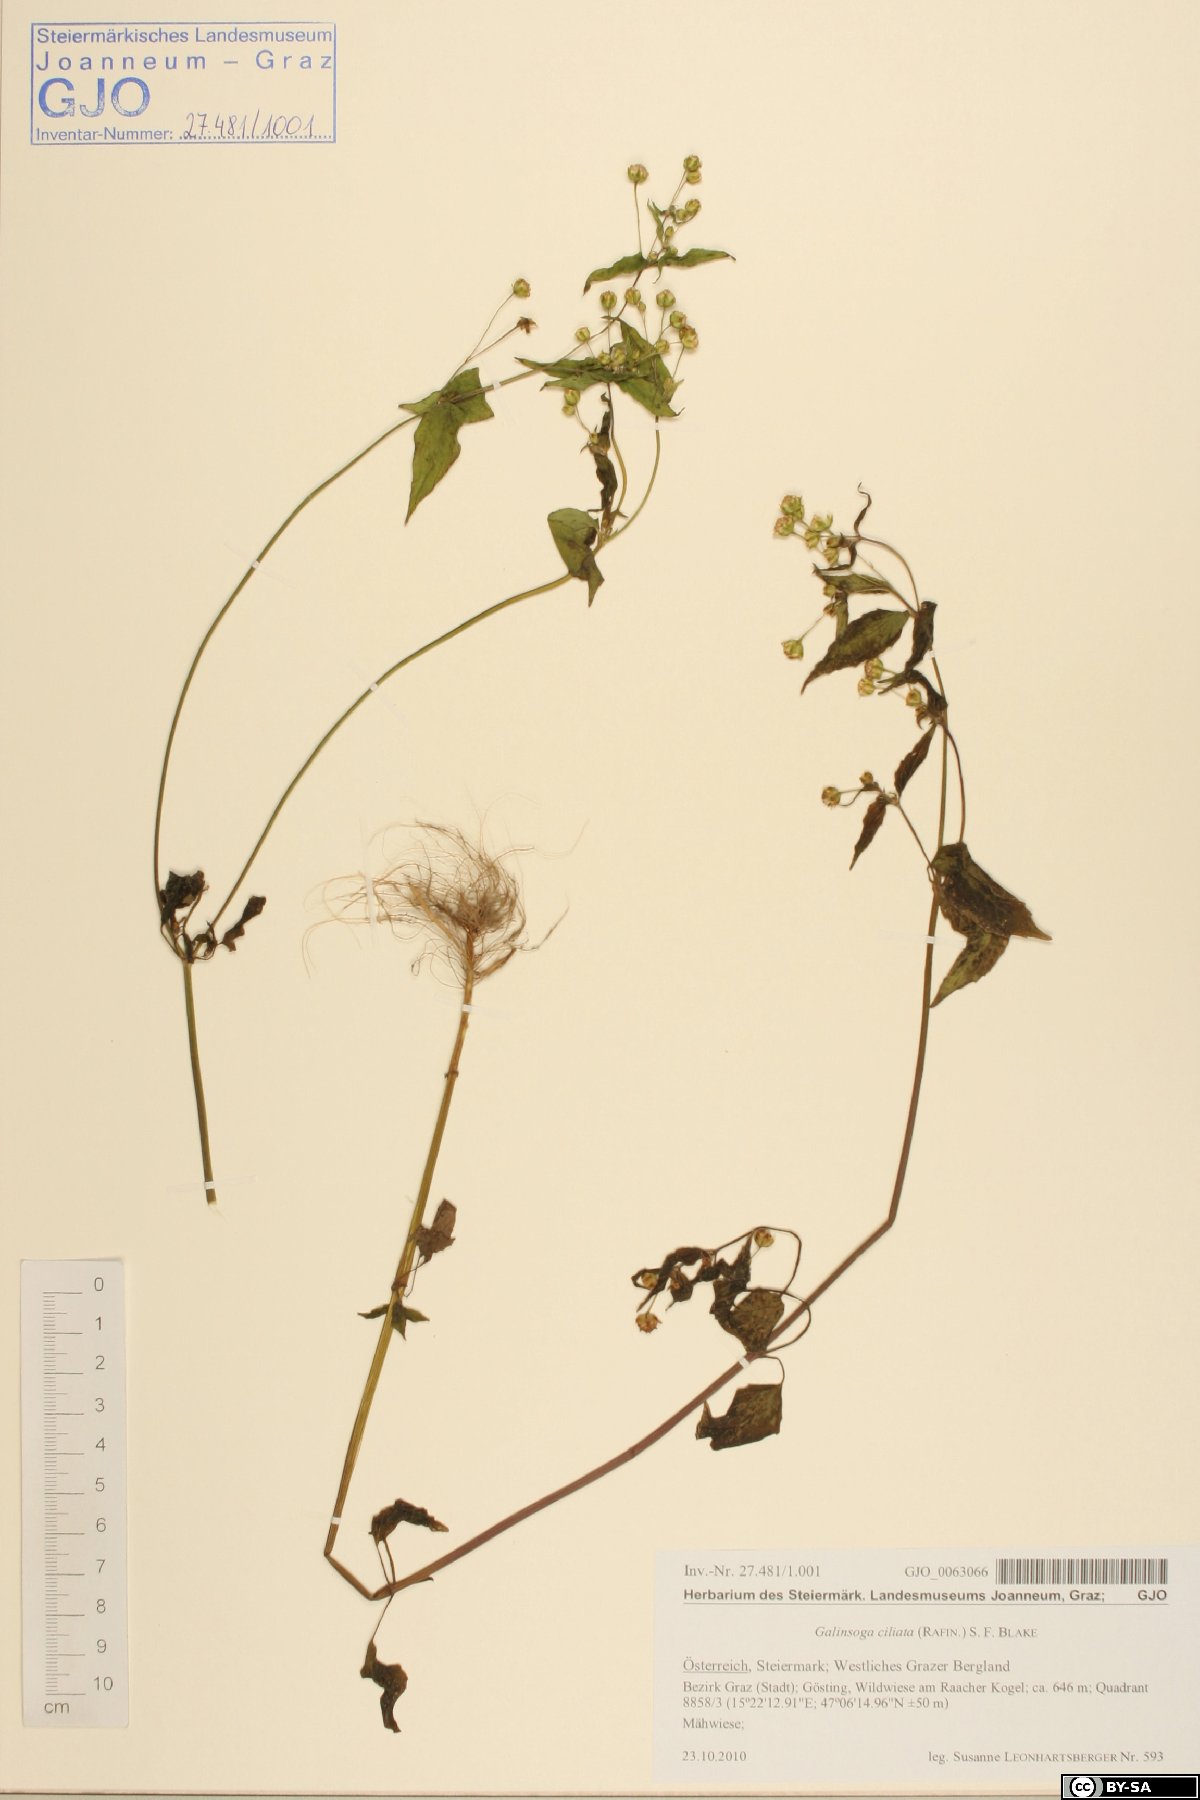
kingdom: Plantae
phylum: Tracheophyta
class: Magnoliopsida
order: Asterales
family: Asteraceae
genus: Galinsoga
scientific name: Galinsoga quadriradiata
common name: Shaggy soldier
